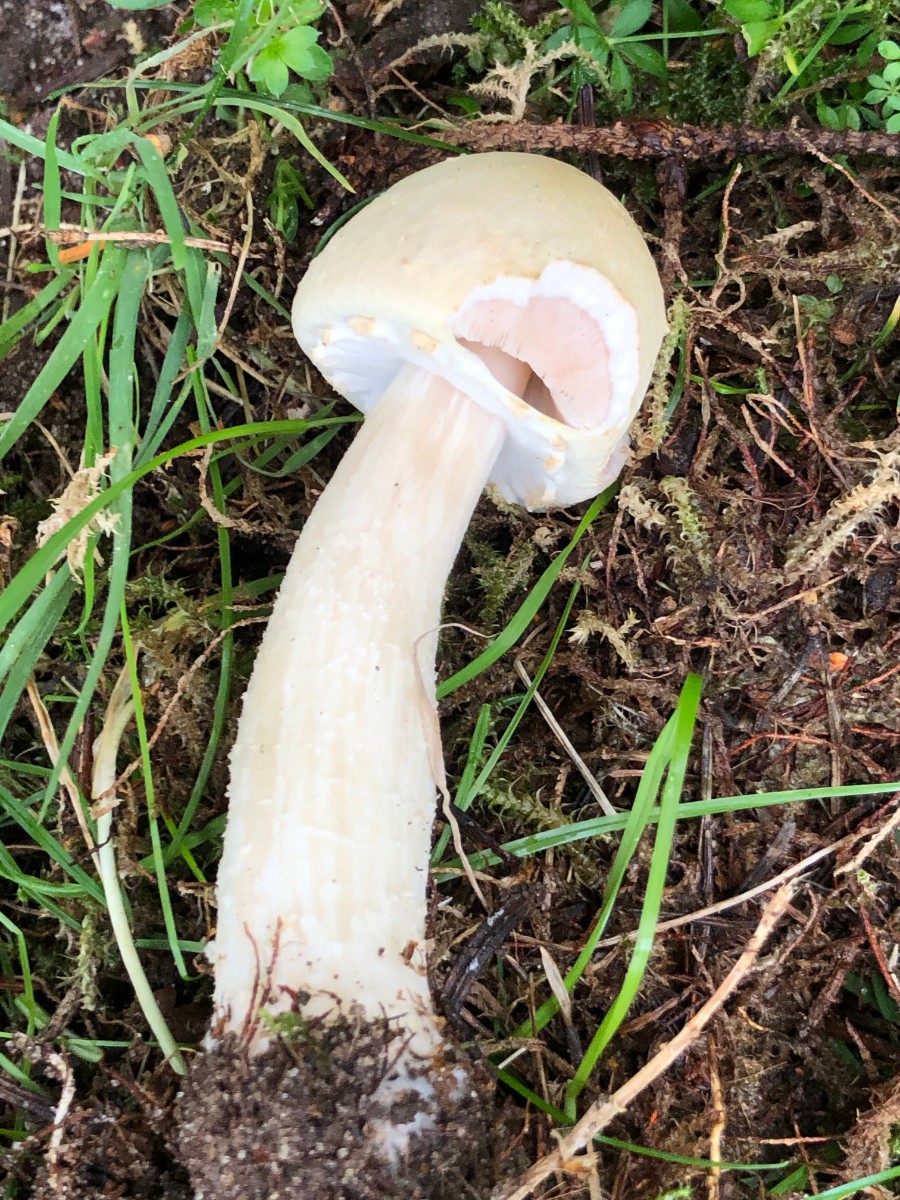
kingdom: Fungi
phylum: Basidiomycota
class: Agaricomycetes
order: Agaricales
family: Agaricaceae
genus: Agaricus
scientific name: Agaricus sylvicola
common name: gulhvid champignon
